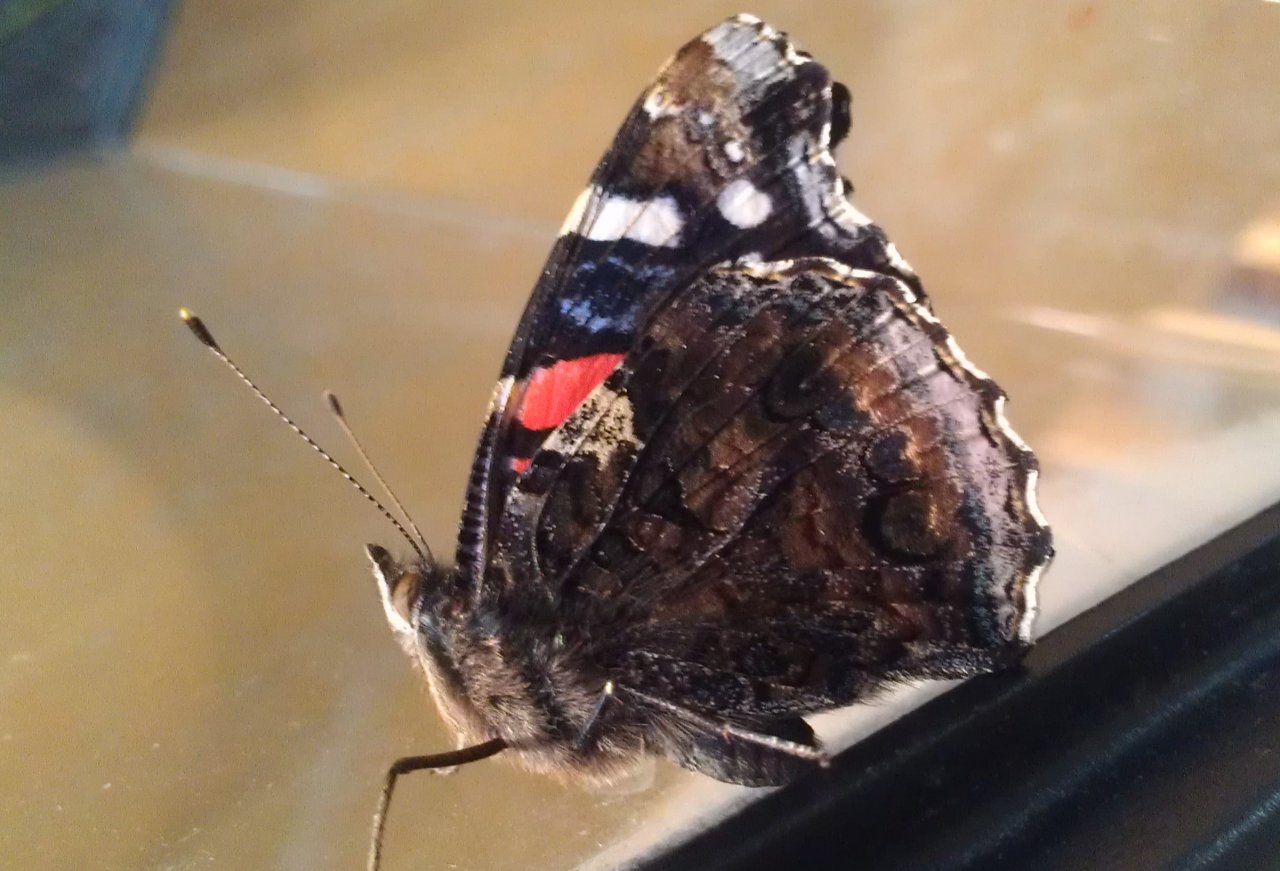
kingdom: Animalia
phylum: Arthropoda
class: Insecta
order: Lepidoptera
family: Nymphalidae
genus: Vanessa
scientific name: Vanessa atalanta
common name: Red Admiral
